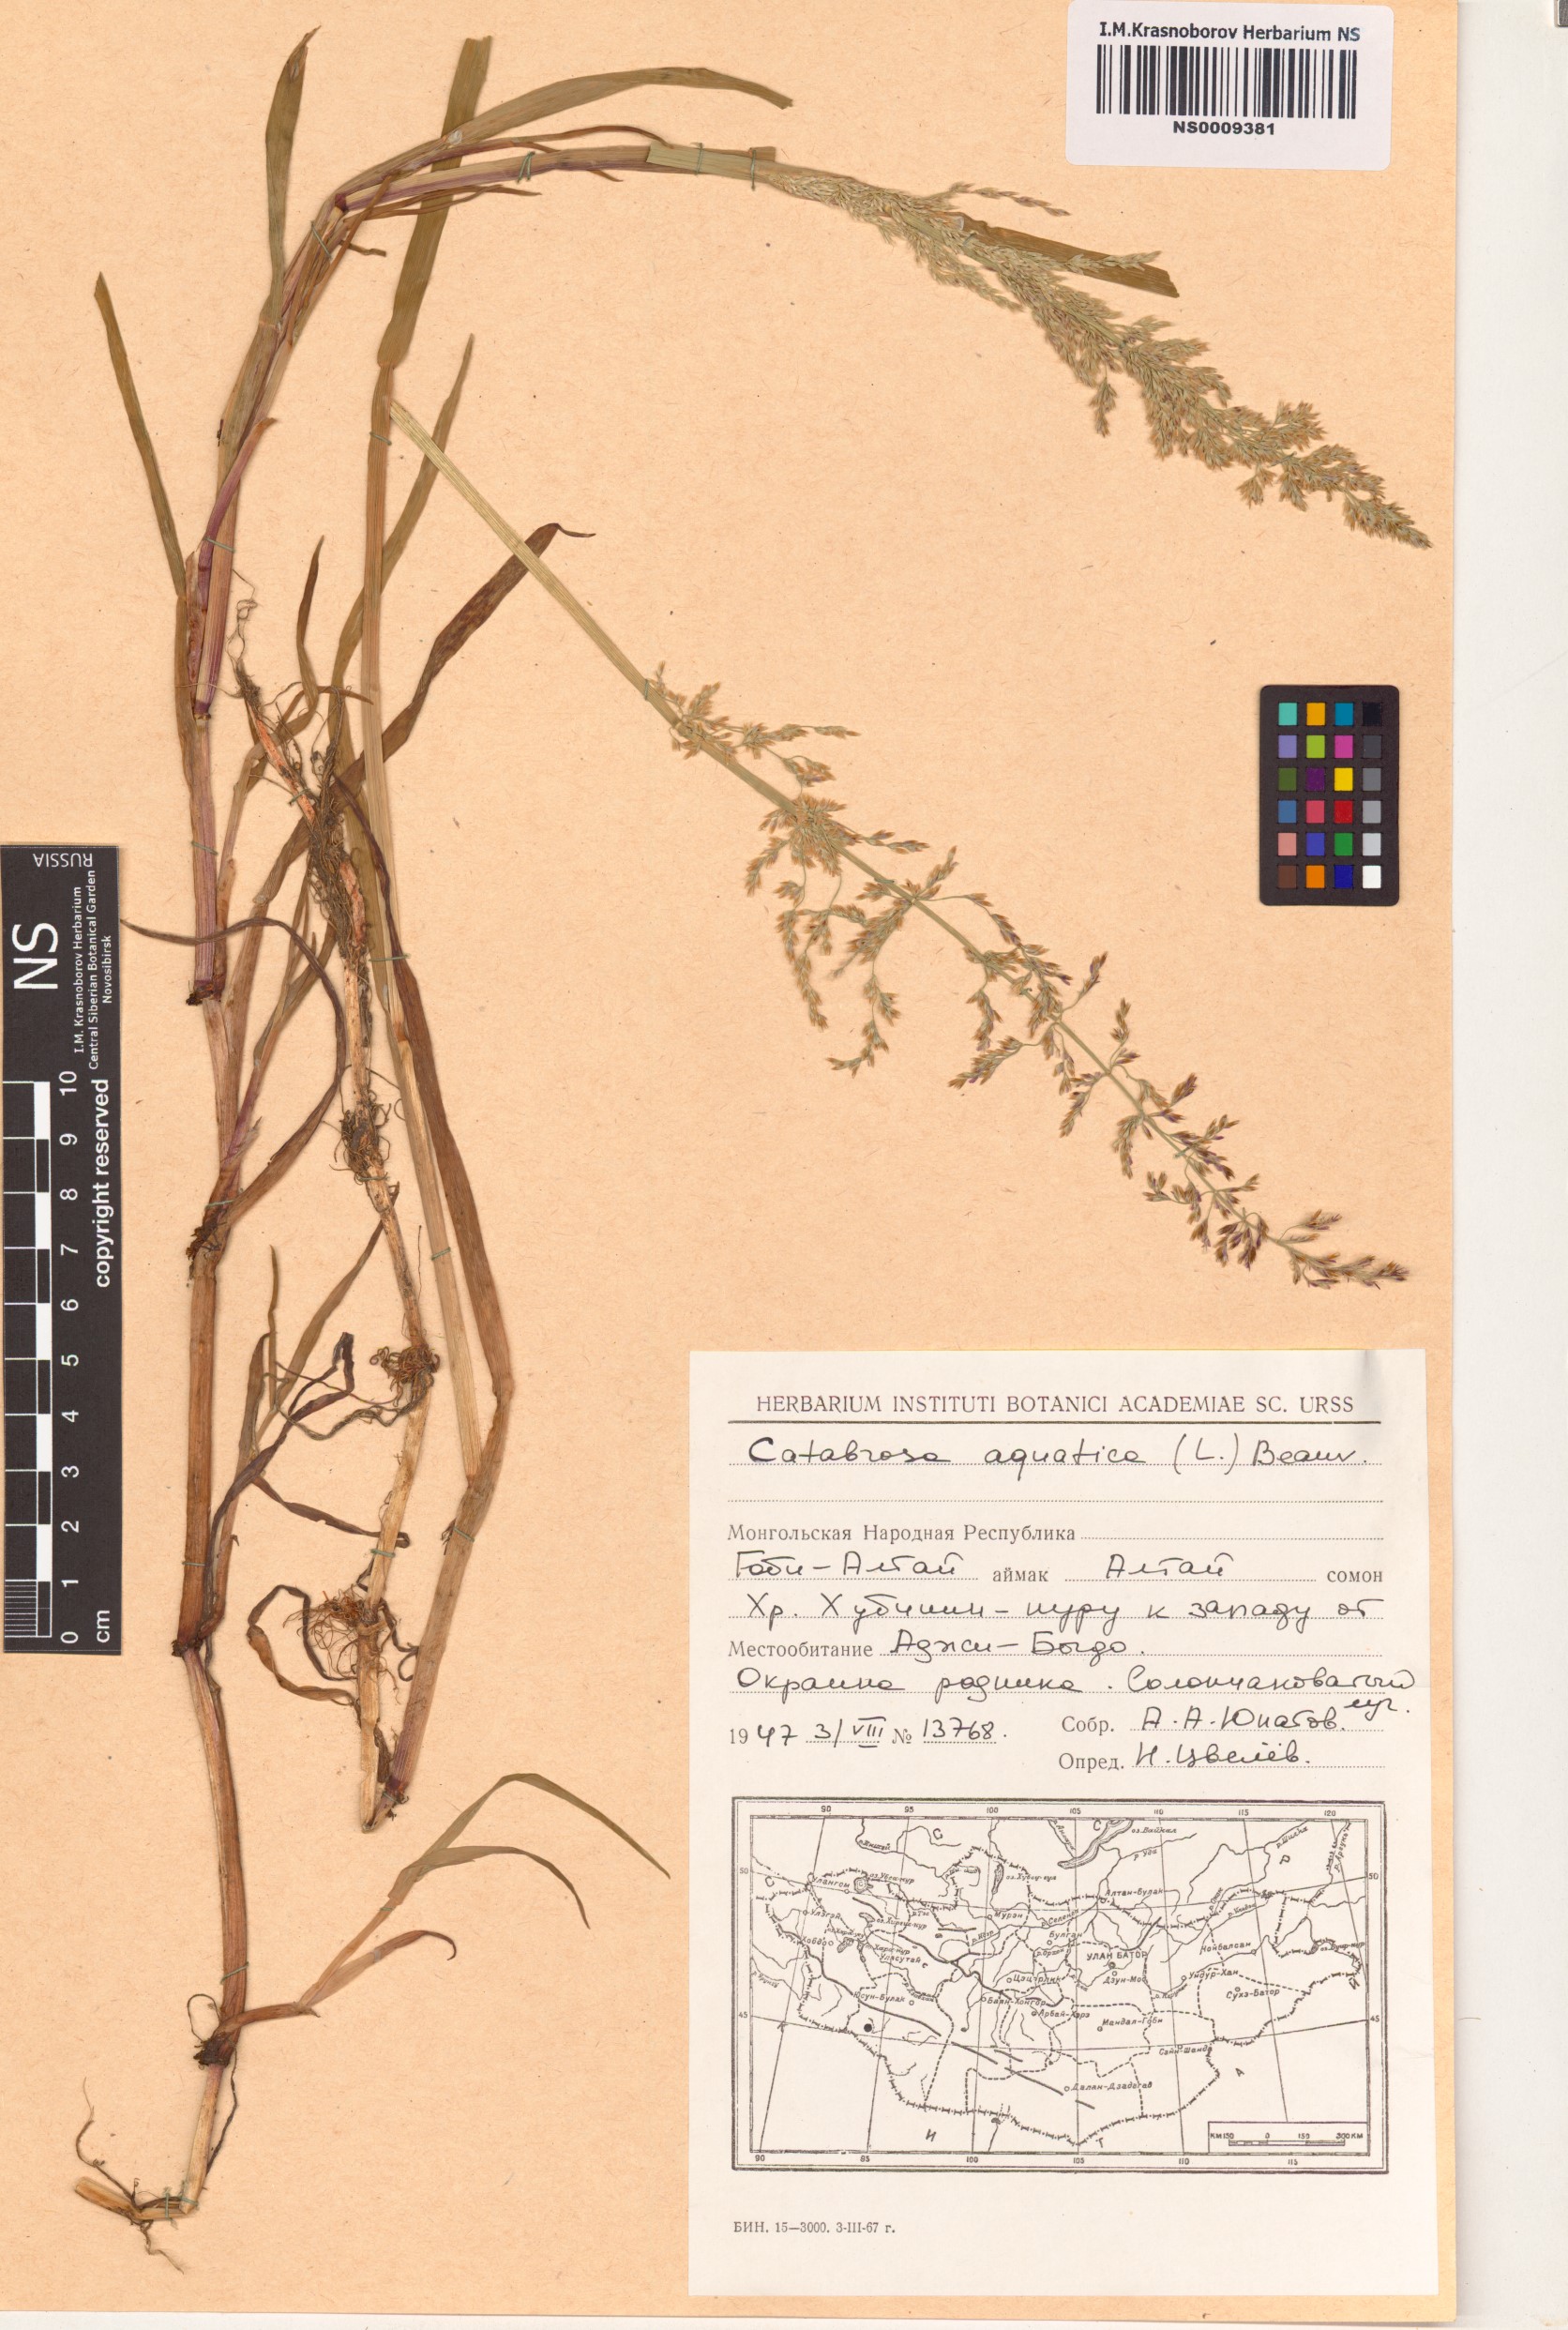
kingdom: Plantae
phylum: Tracheophyta
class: Liliopsida
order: Poales
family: Poaceae
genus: Catabrosa
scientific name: Catabrosa aquatica
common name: Whorl-grass
